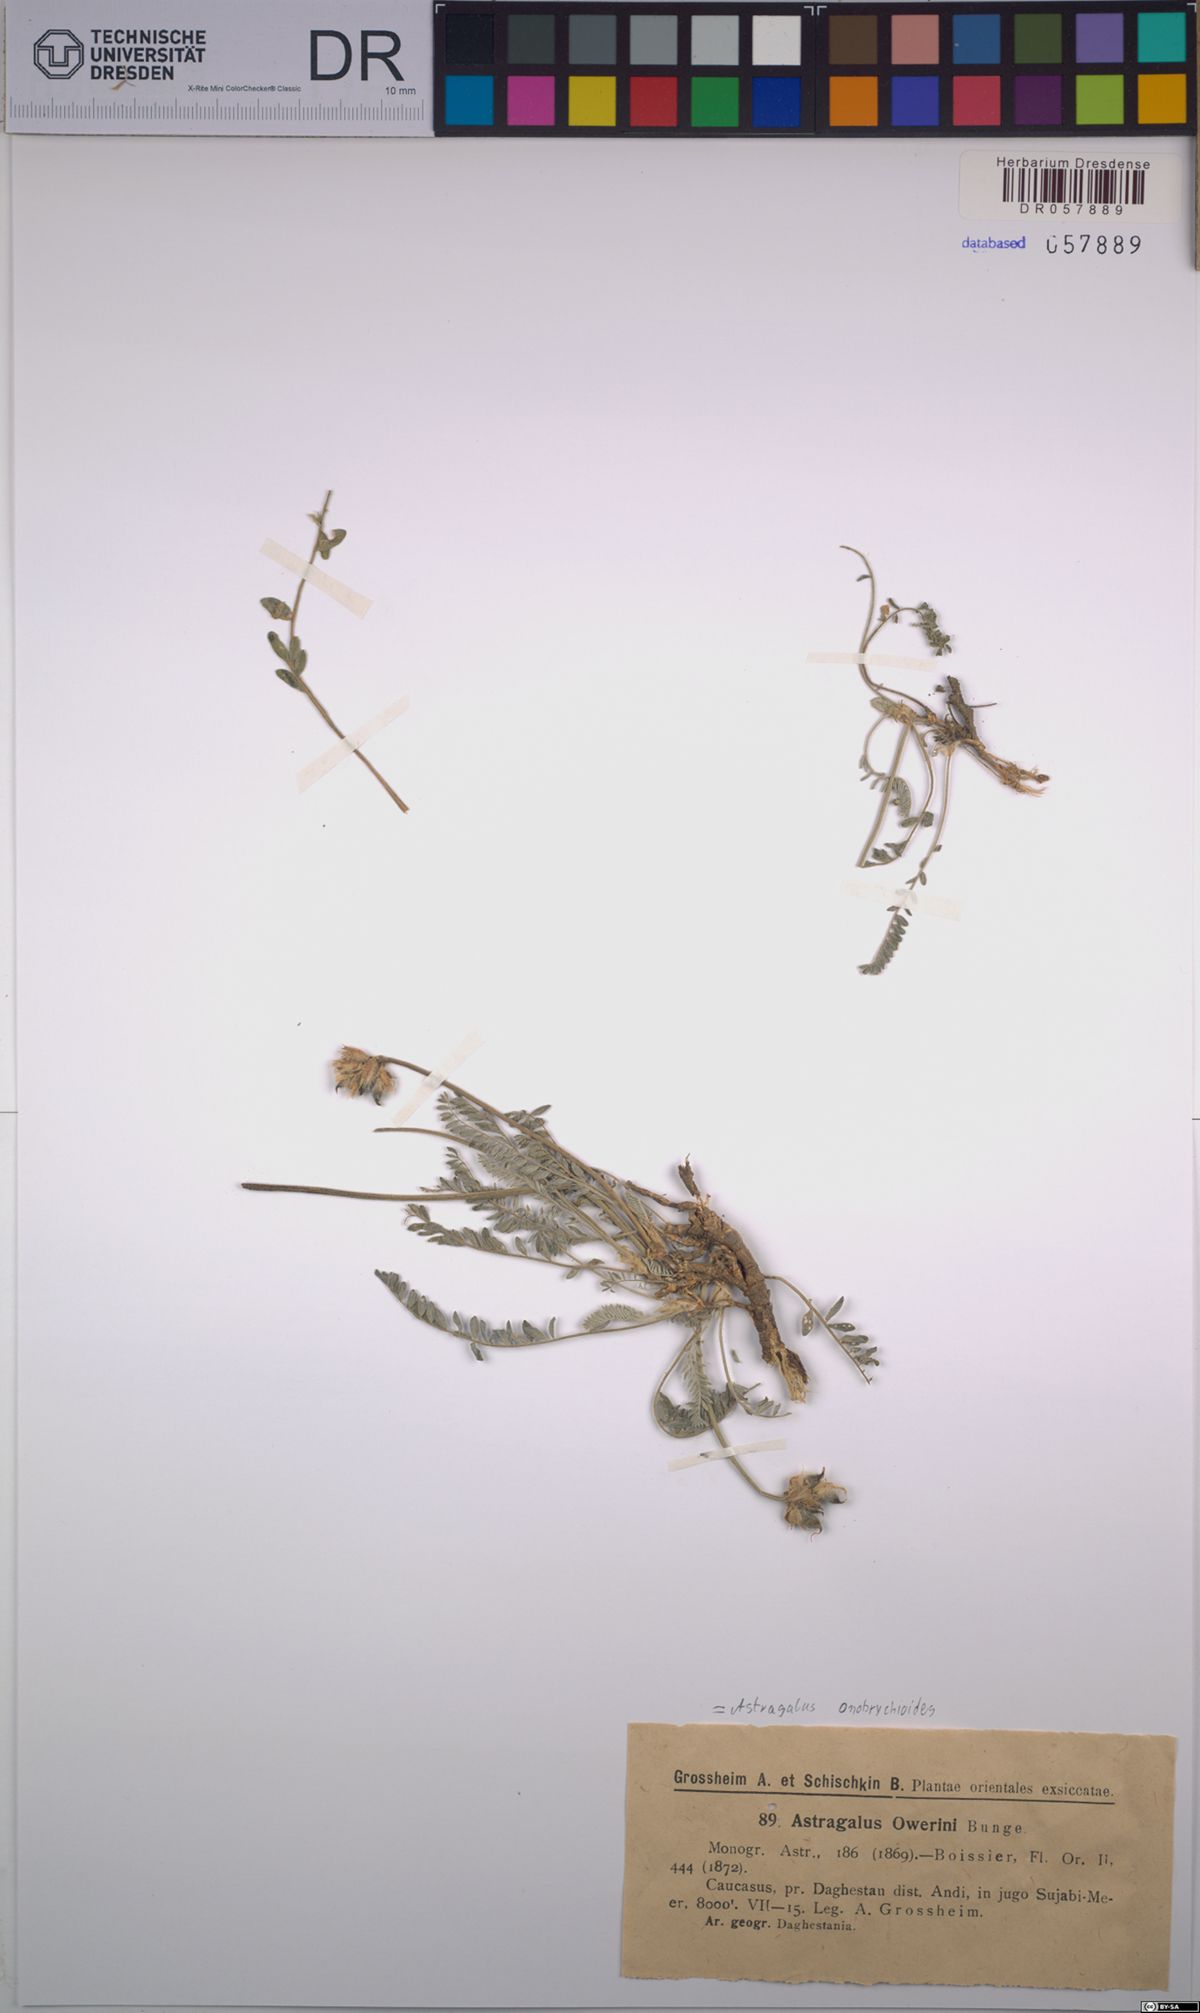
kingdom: Plantae
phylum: Tracheophyta
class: Magnoliopsida
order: Fabales
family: Fabaceae
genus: Astragalus
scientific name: Astragalus onobrychioides
